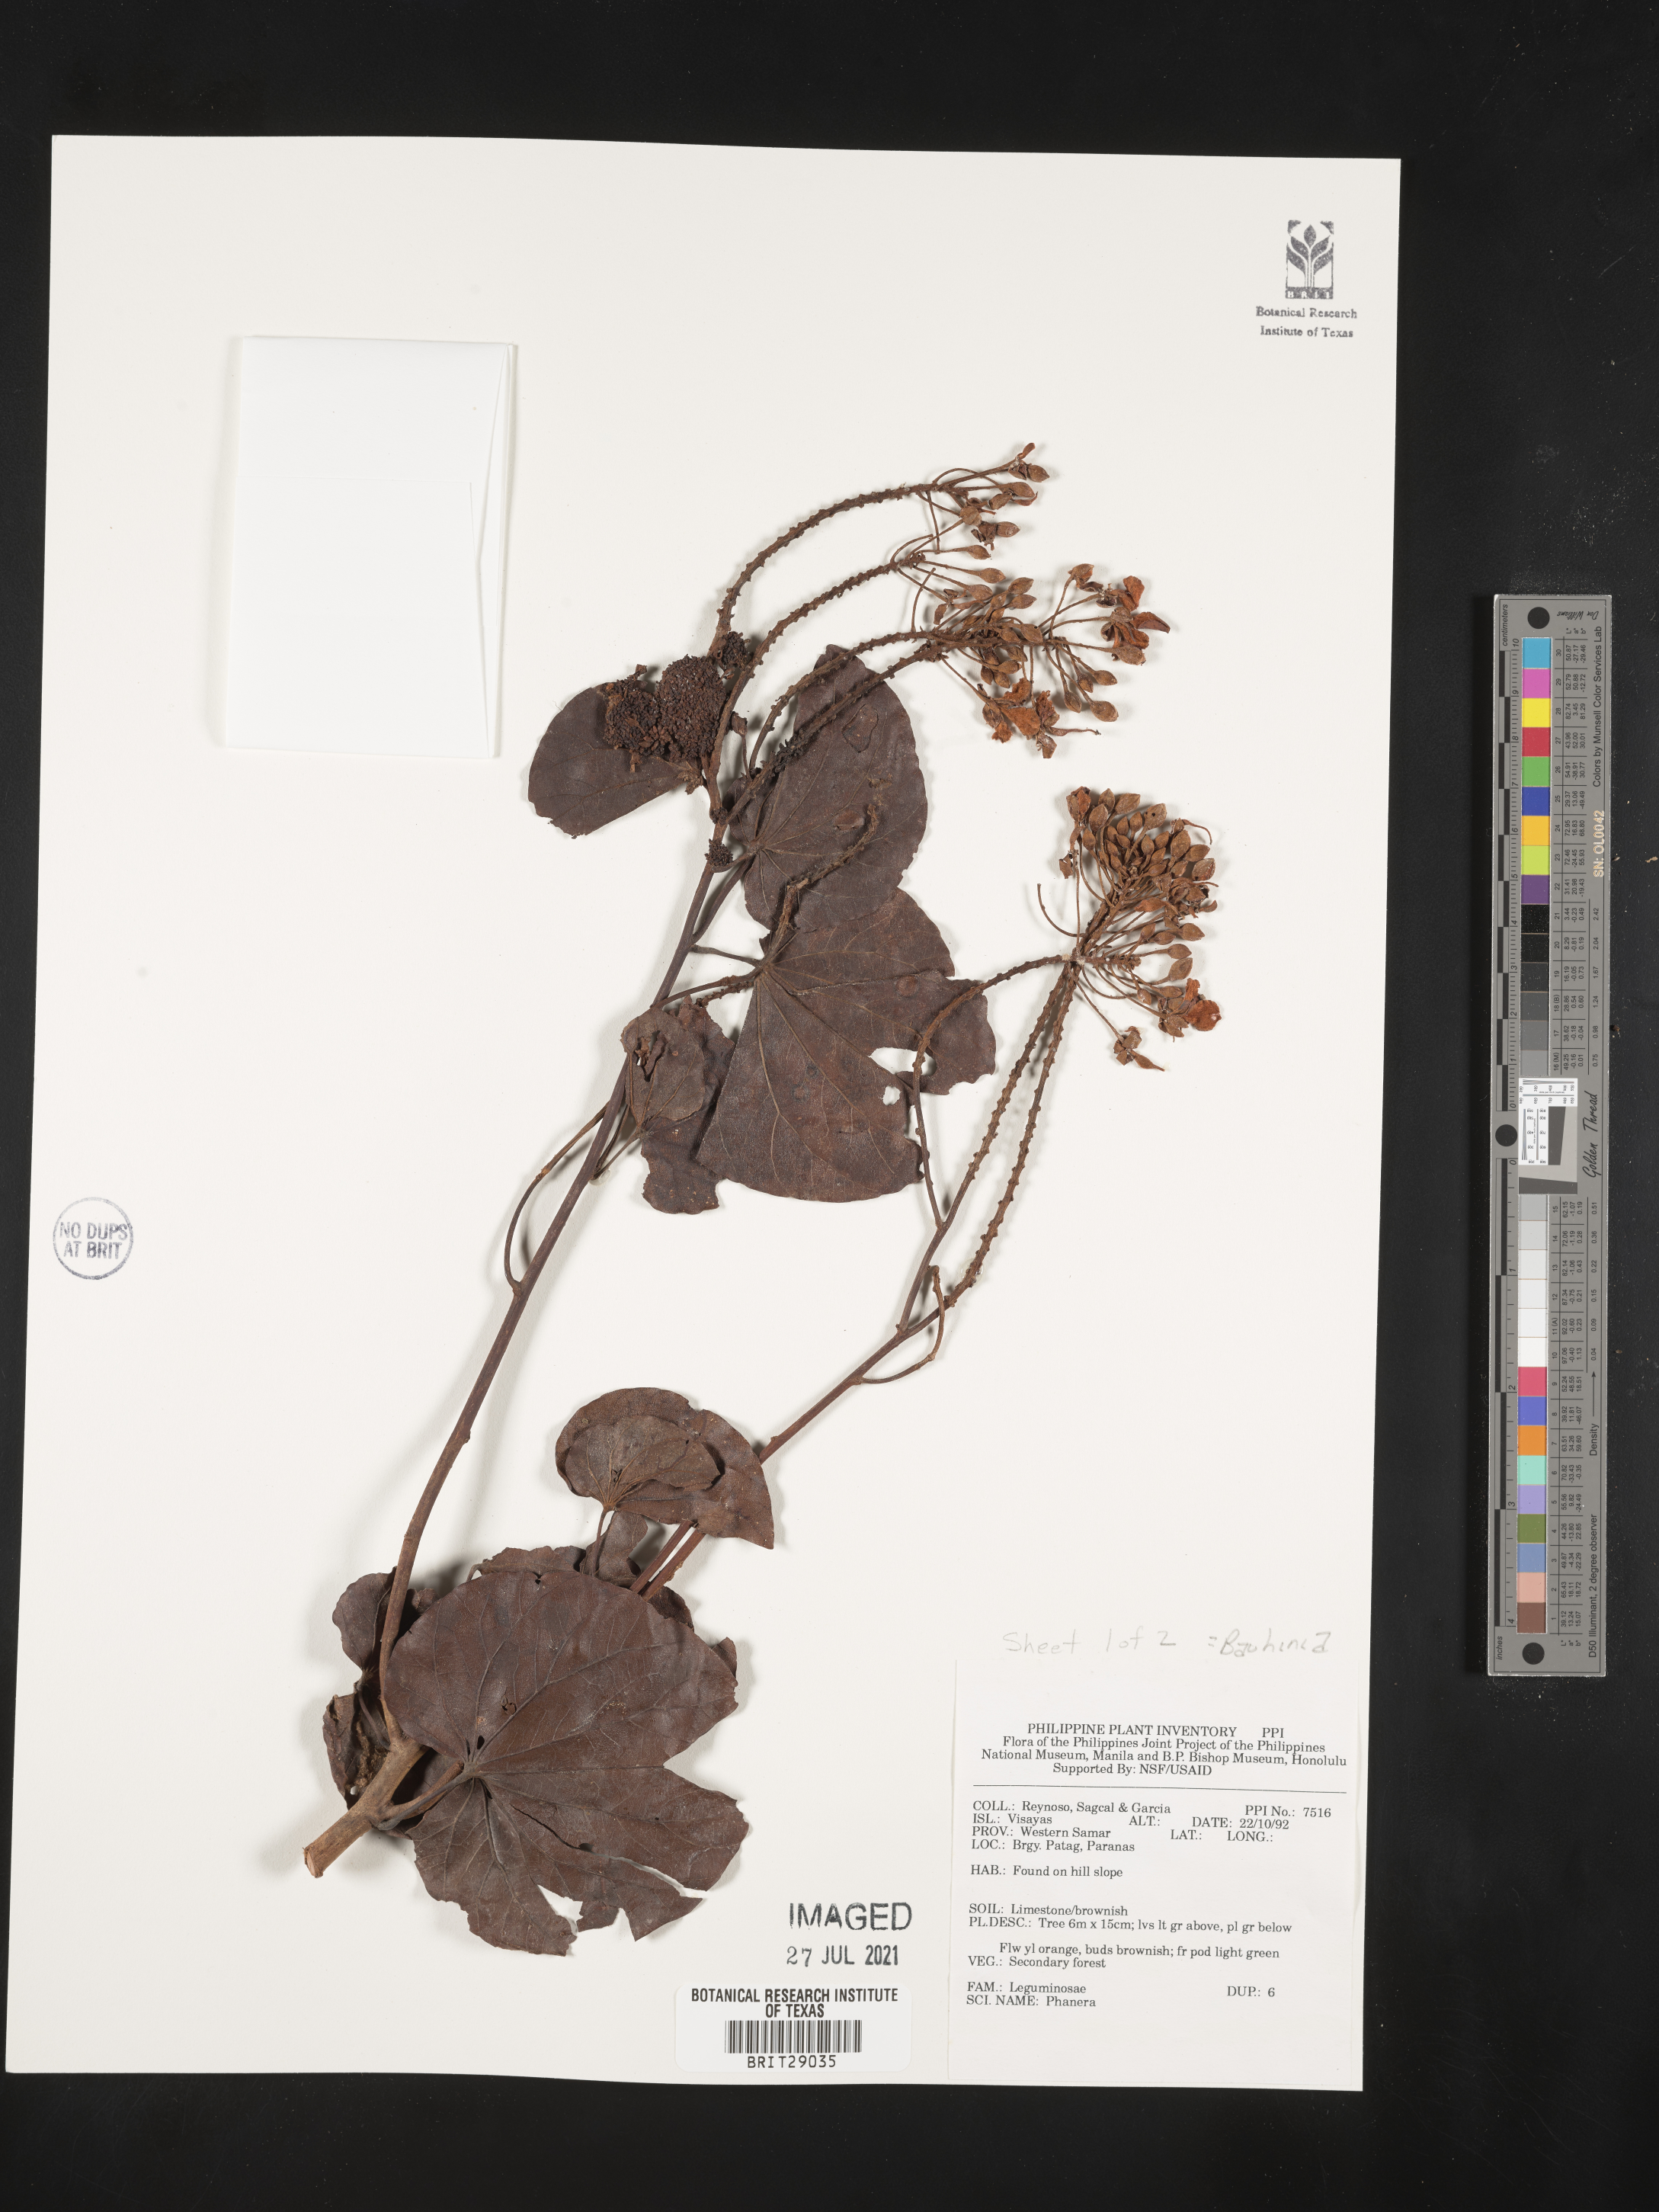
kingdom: Plantae
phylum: Tracheophyta
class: Magnoliopsida
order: Fabales
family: Fabaceae
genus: Bauhinia
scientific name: Bauhinia
